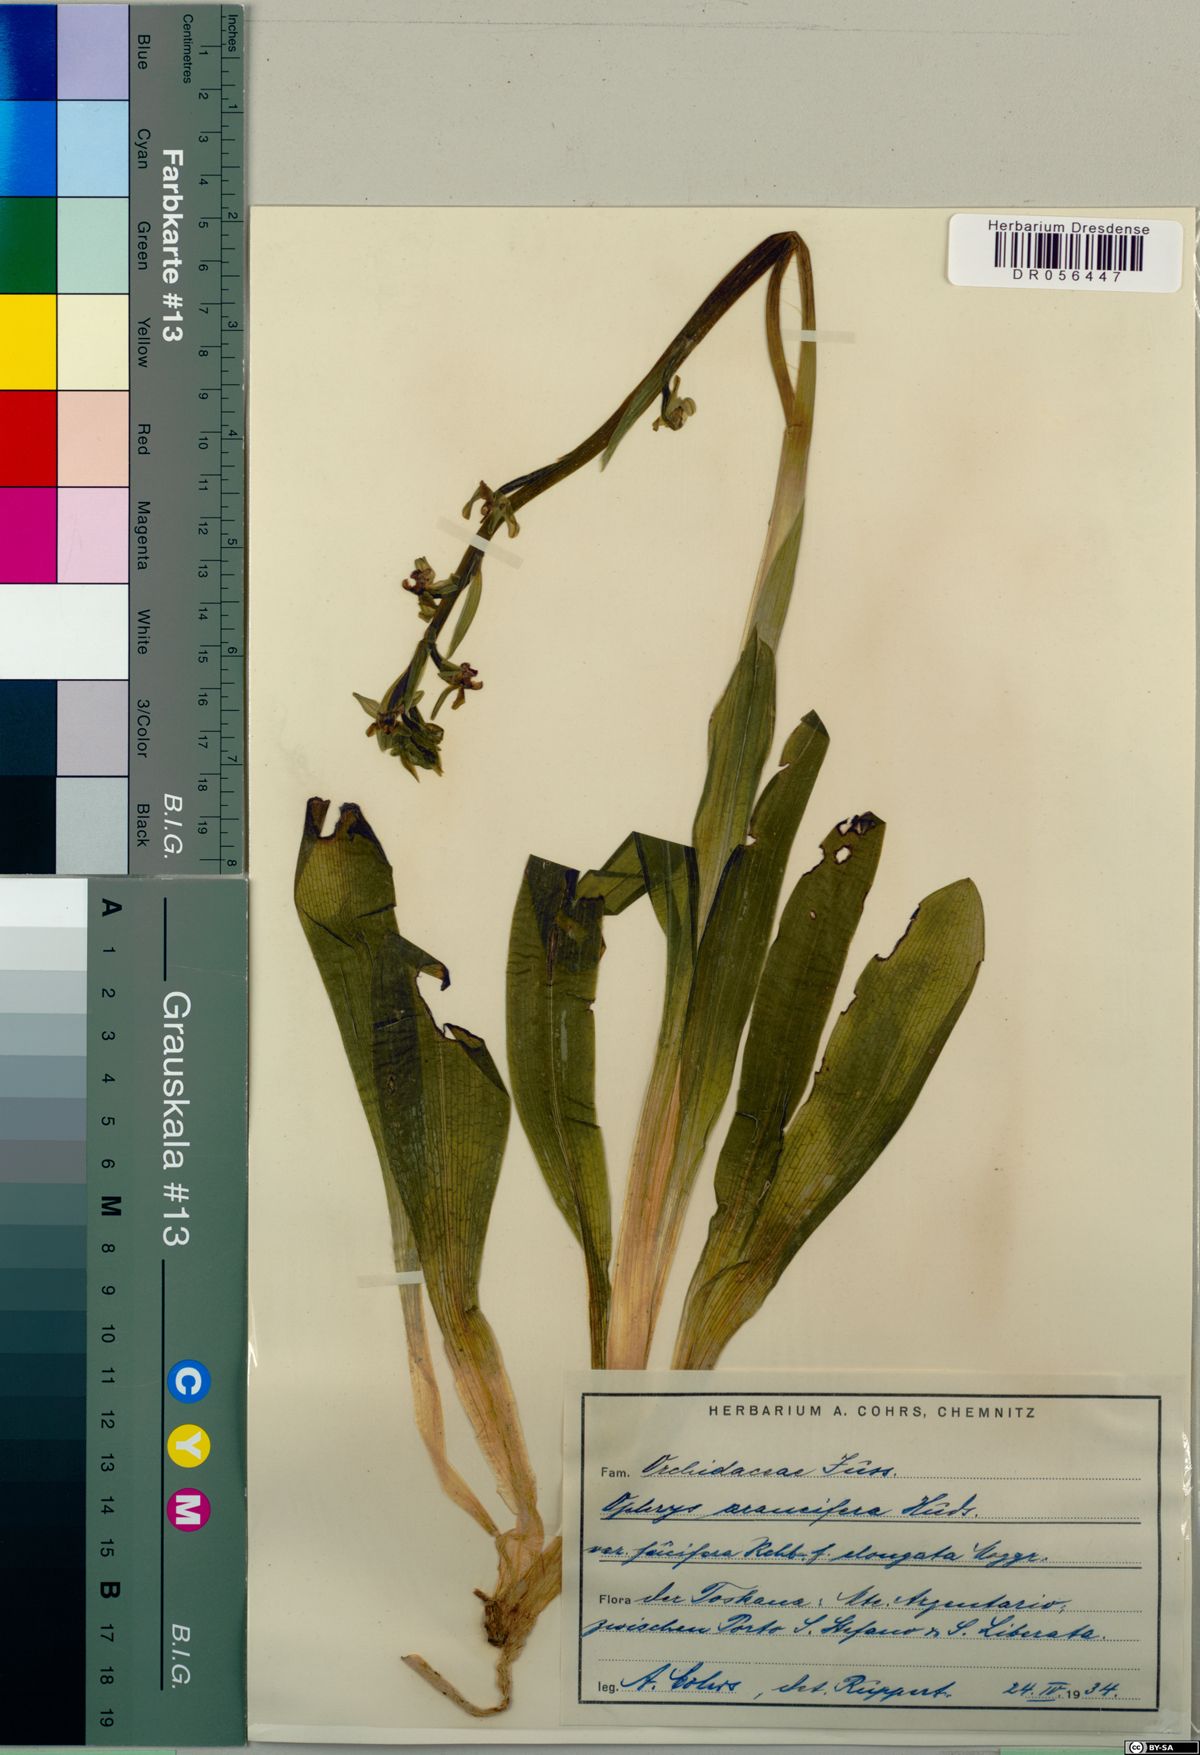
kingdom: Plantae
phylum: Tracheophyta
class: Liliopsida
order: Asparagales
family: Orchidaceae
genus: Ophrys
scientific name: Ophrys sphegodes
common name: Early spider-orchid
